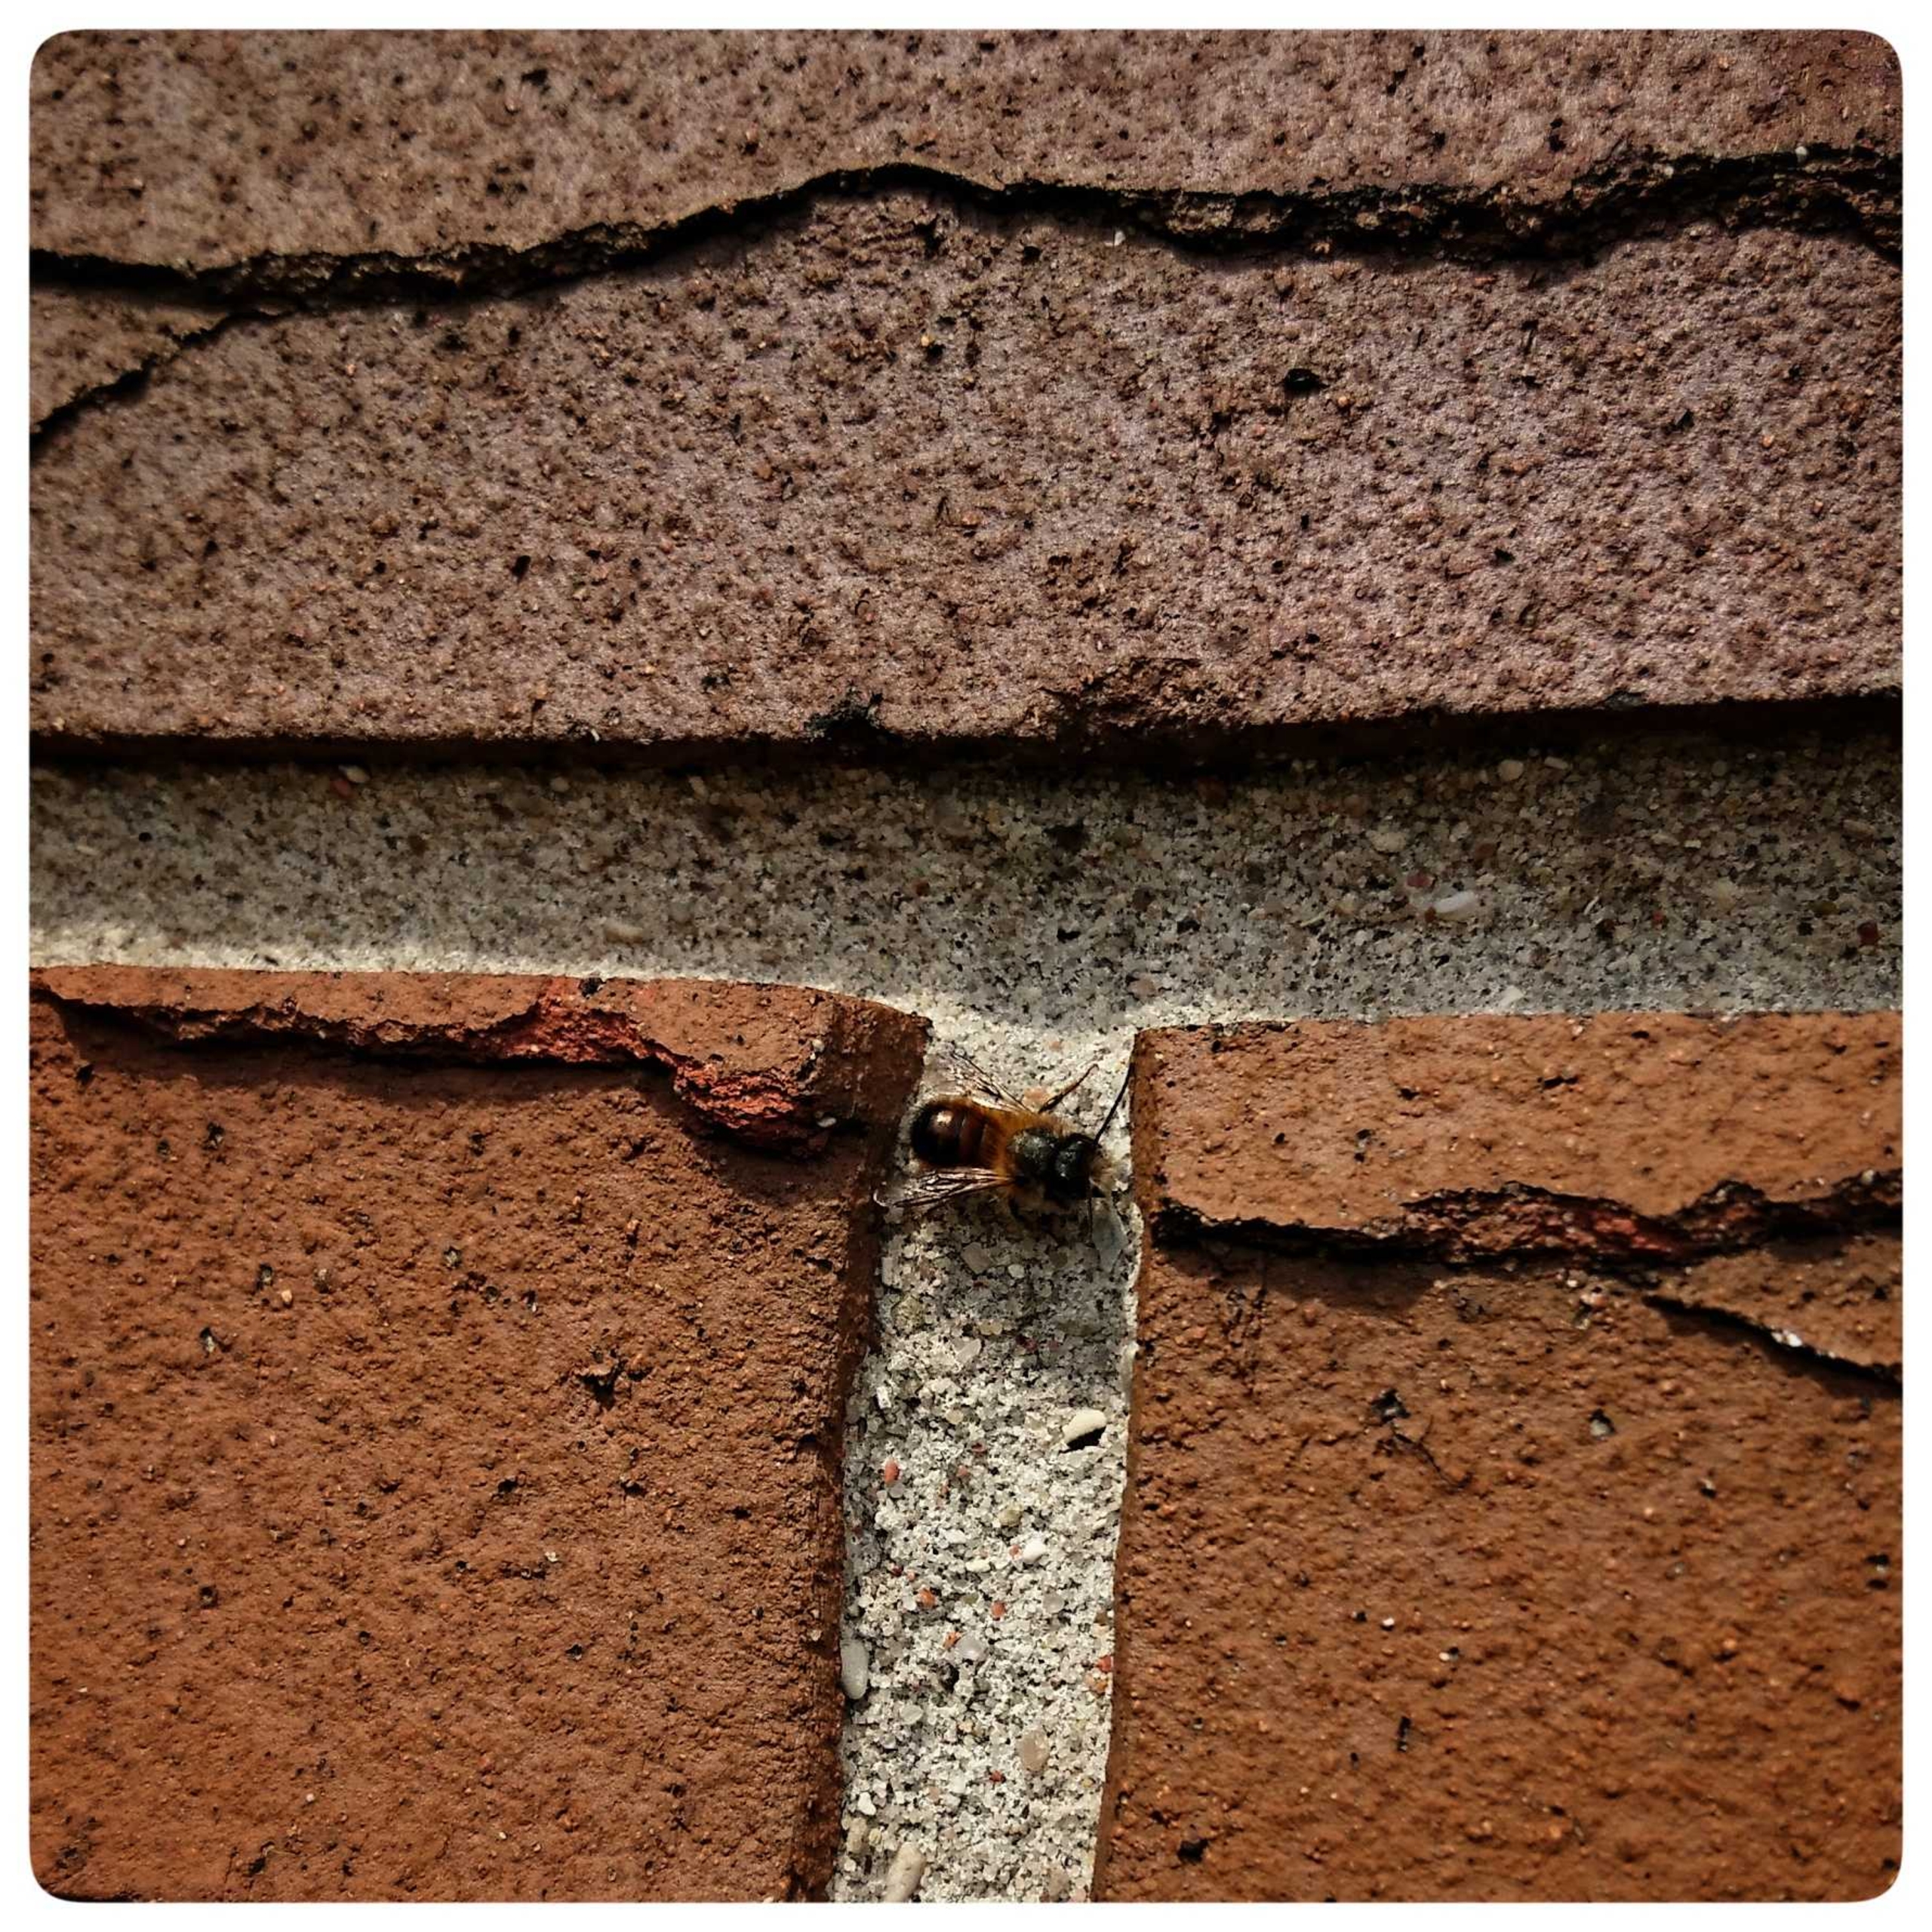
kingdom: Animalia
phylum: Arthropoda
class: Insecta
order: Hymenoptera
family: Megachilidae
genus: Osmia
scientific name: Osmia bicornis
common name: Rød murerbi
